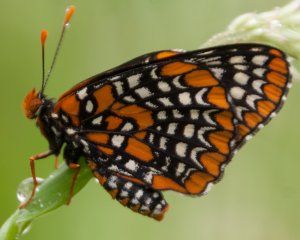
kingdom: Animalia
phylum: Arthropoda
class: Insecta
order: Lepidoptera
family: Nymphalidae
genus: Euphydryas
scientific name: Euphydryas phaeton
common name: Baltimore Checkerspot
